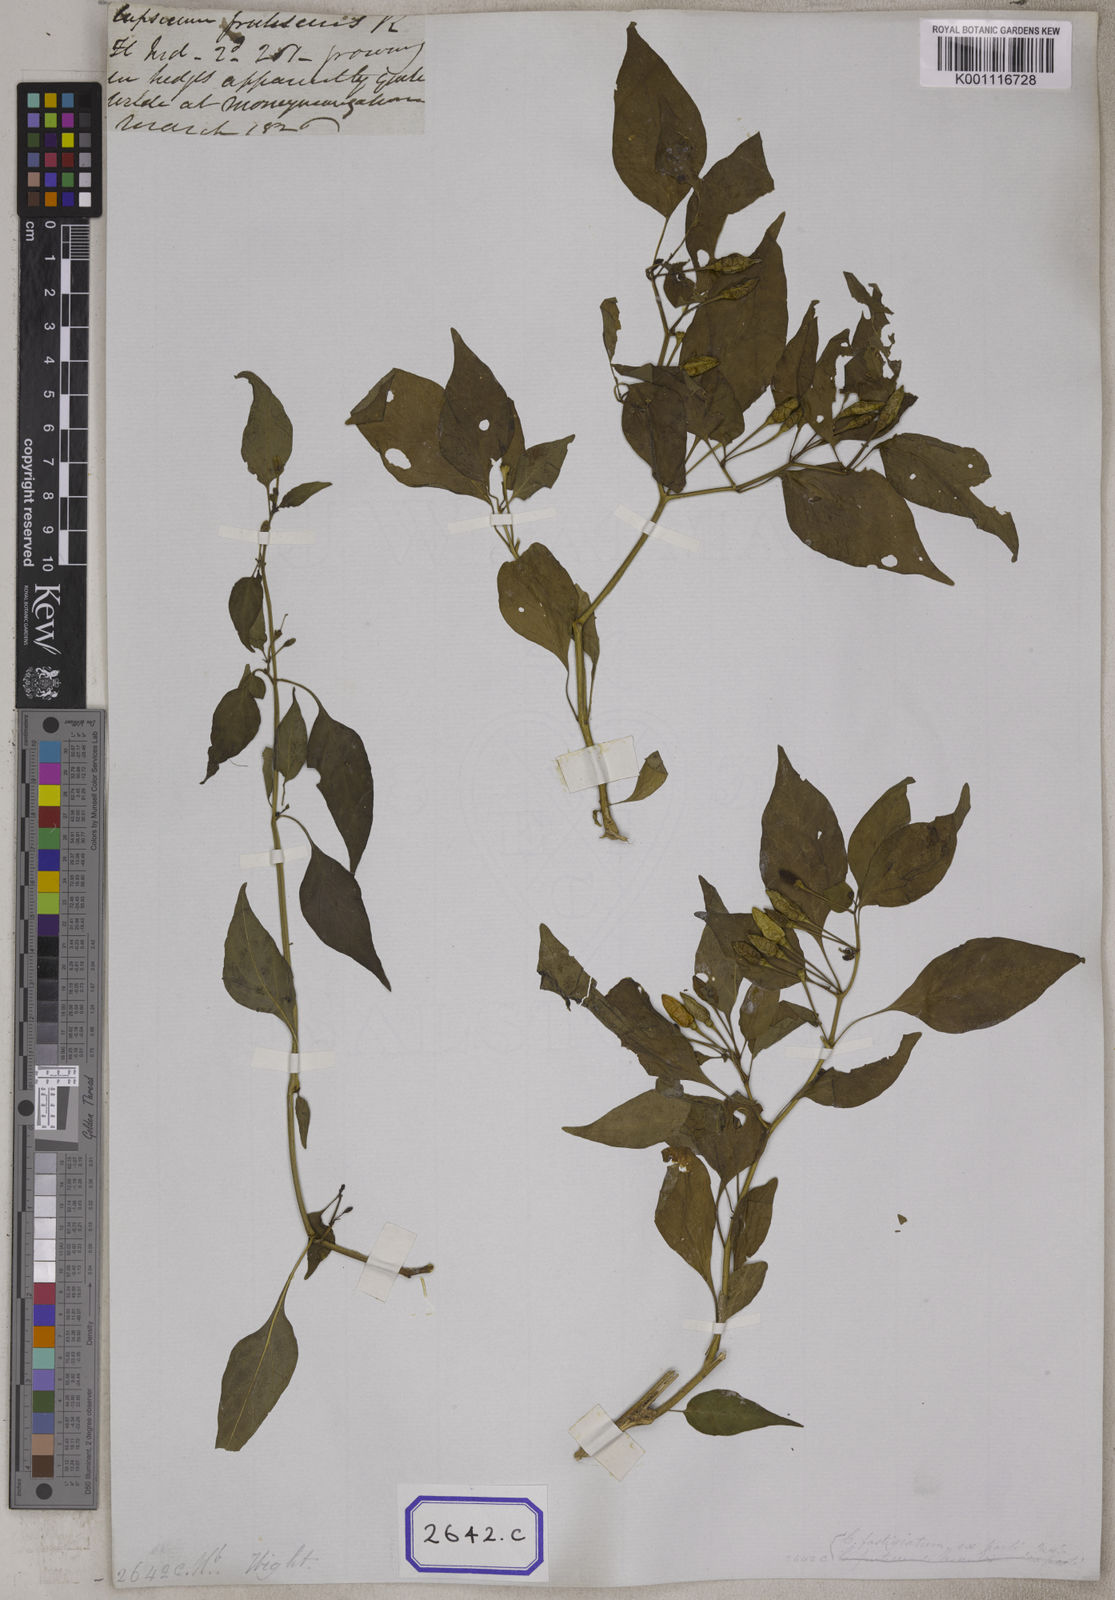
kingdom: Plantae
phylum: Tracheophyta
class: Magnoliopsida
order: Solanales
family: Solanaceae
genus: Capsicum
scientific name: Capsicum frutescens
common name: Bird pepper
